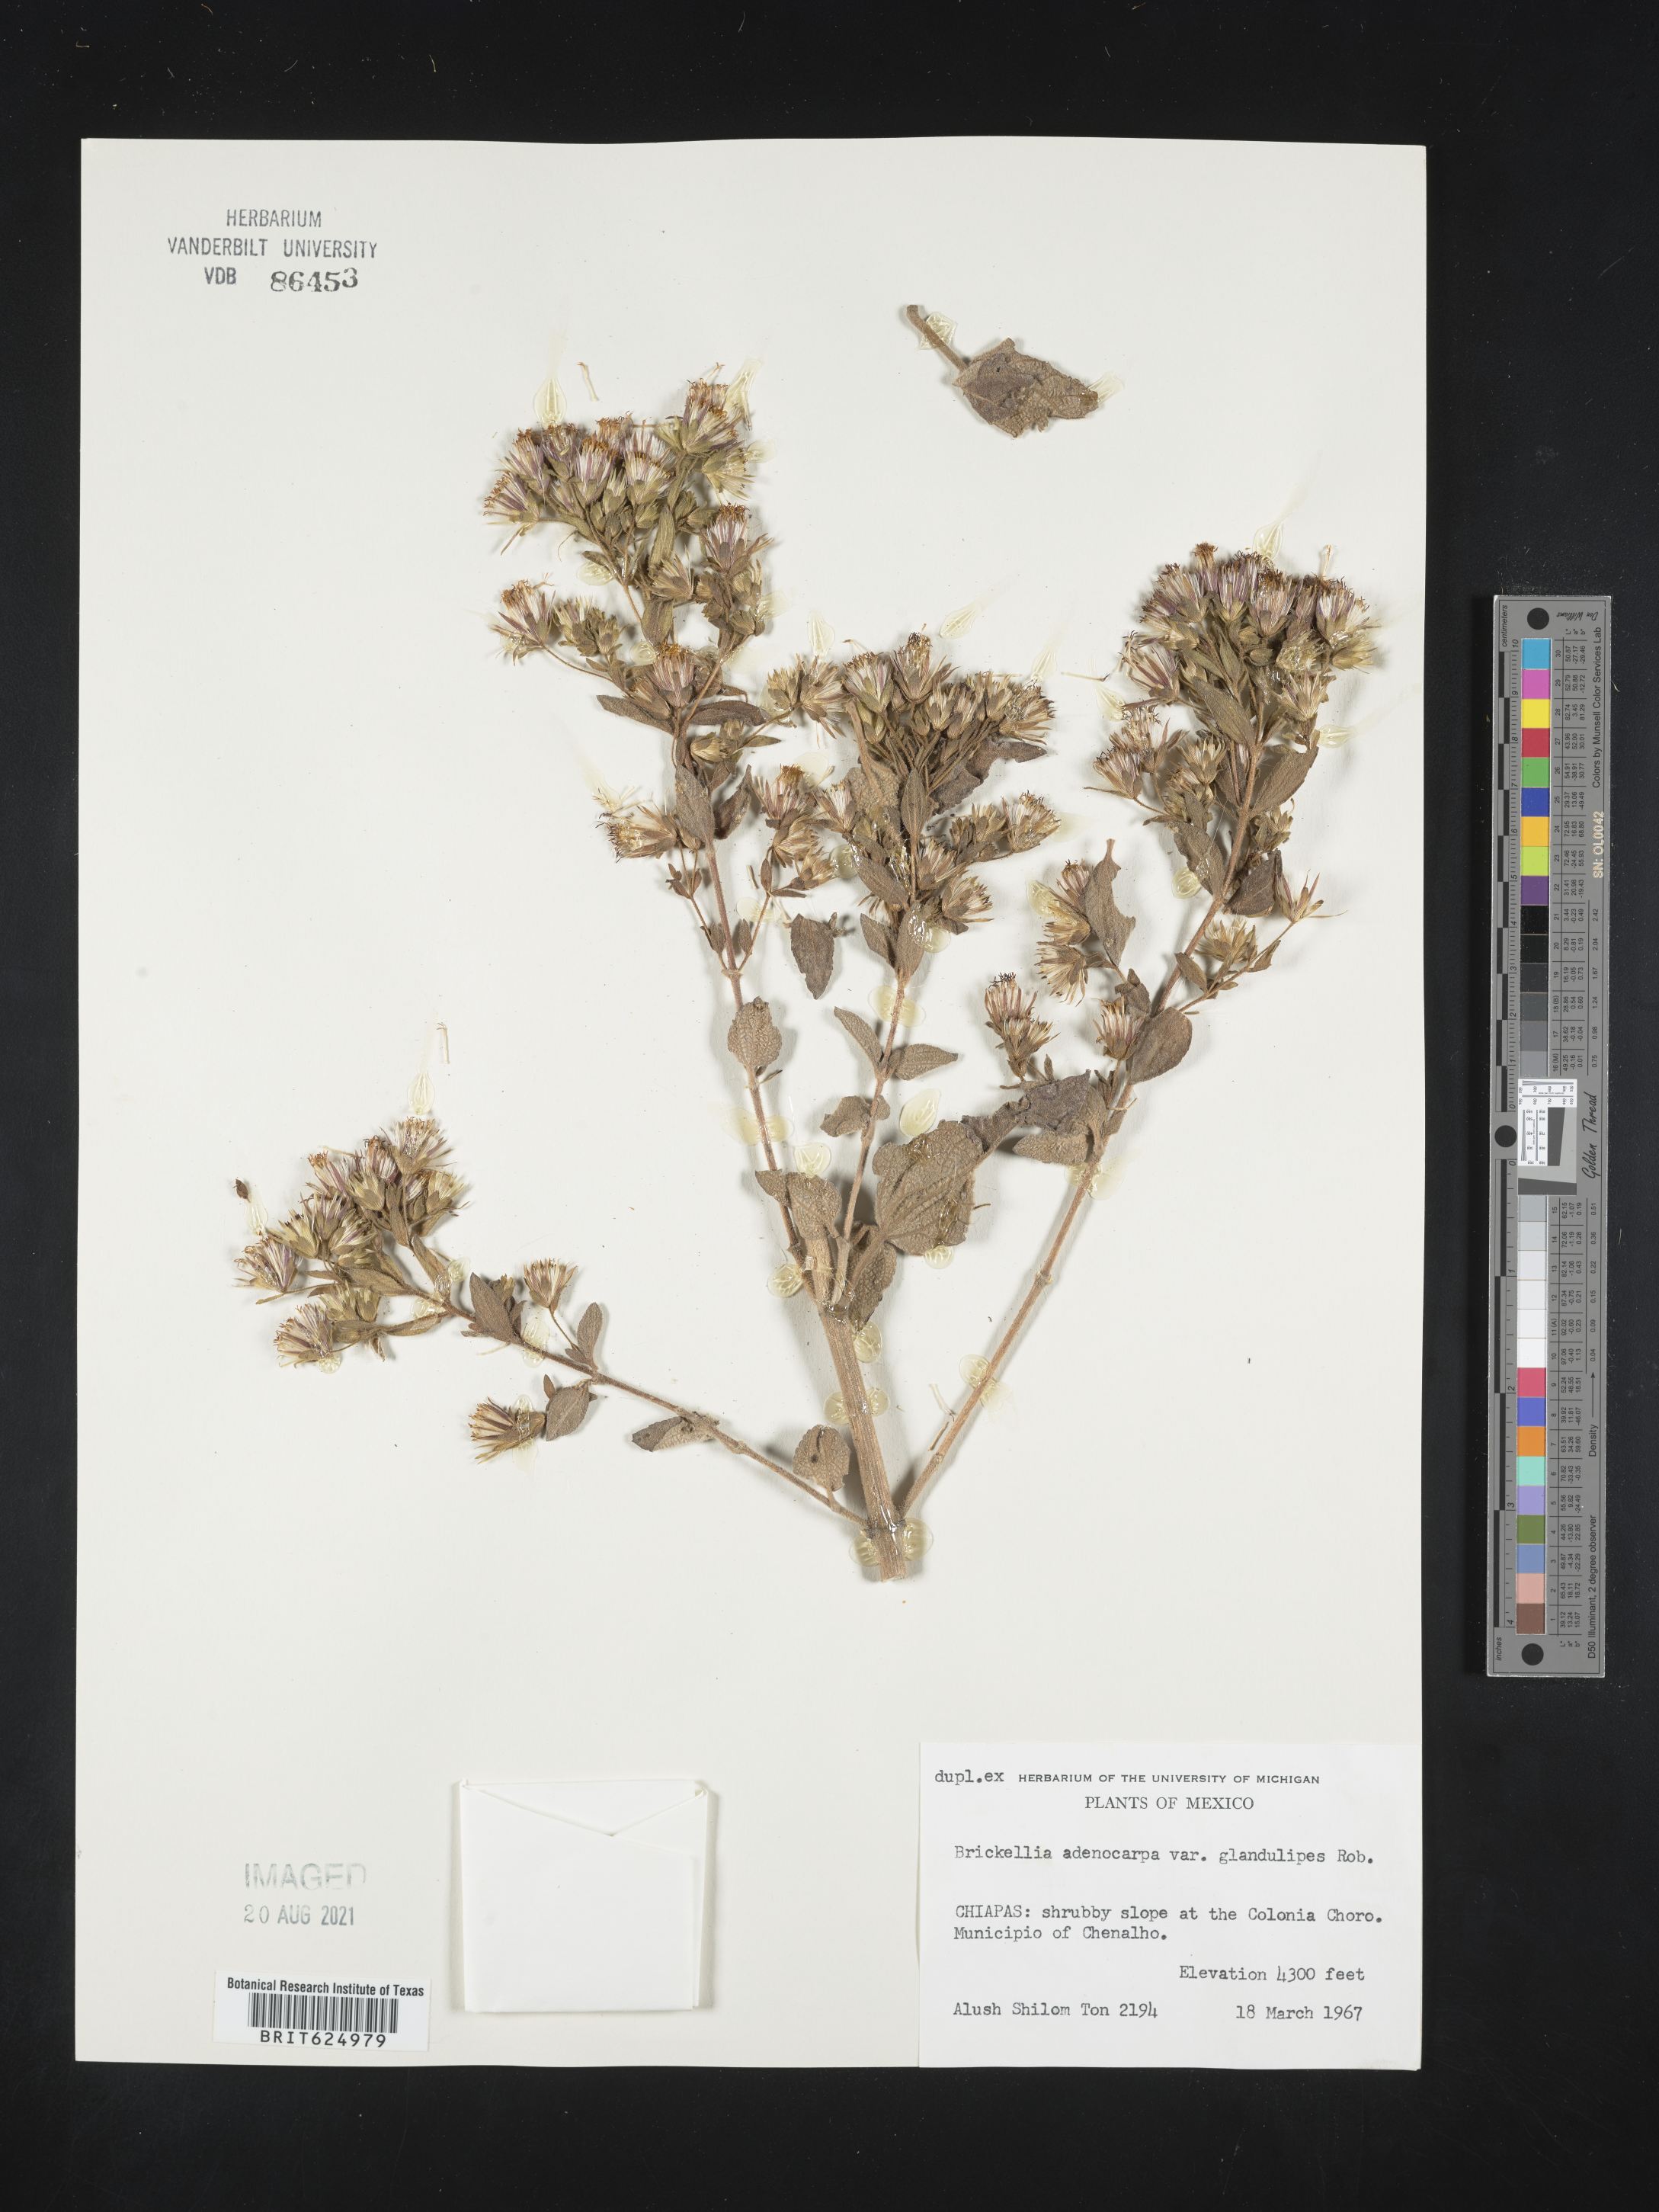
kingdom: Plantae
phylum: Tracheophyta
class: Magnoliopsida
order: Asterales
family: Asteraceae
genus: Brickellia
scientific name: Brickellia
